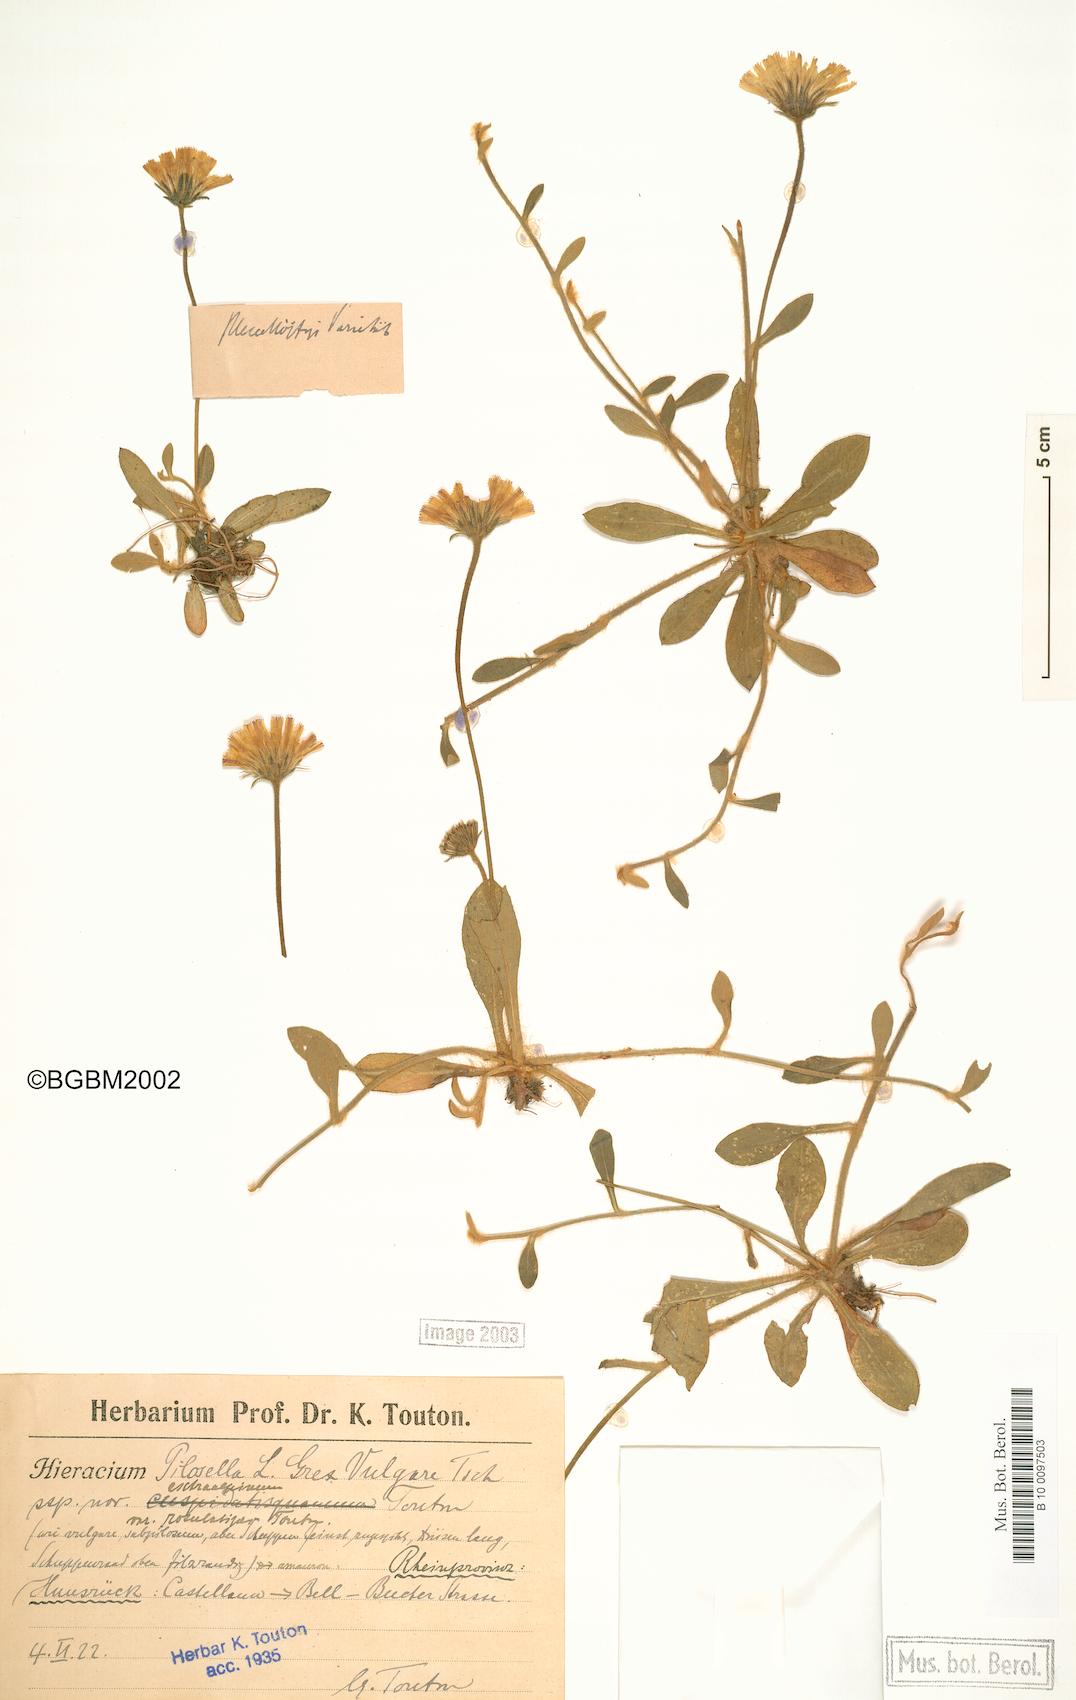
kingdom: Plantae
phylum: Tracheophyta
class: Magnoliopsida
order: Asterales
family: Asteraceae
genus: Pilosella
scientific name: Pilosella officinarum
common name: Mouse-ear hawkweed
